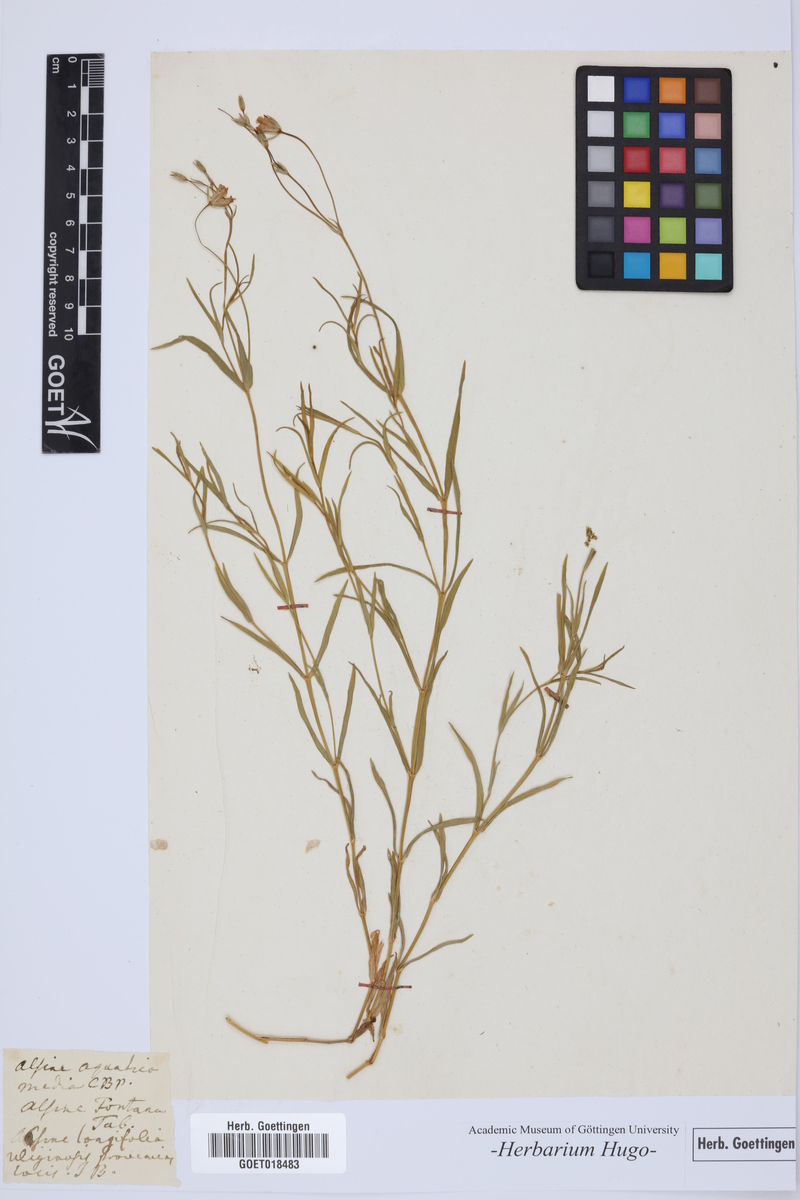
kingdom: Plantae
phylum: Tracheophyta
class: Magnoliopsida
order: Caryophyllales
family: Caryophyllaceae
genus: Alsine
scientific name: Alsine
